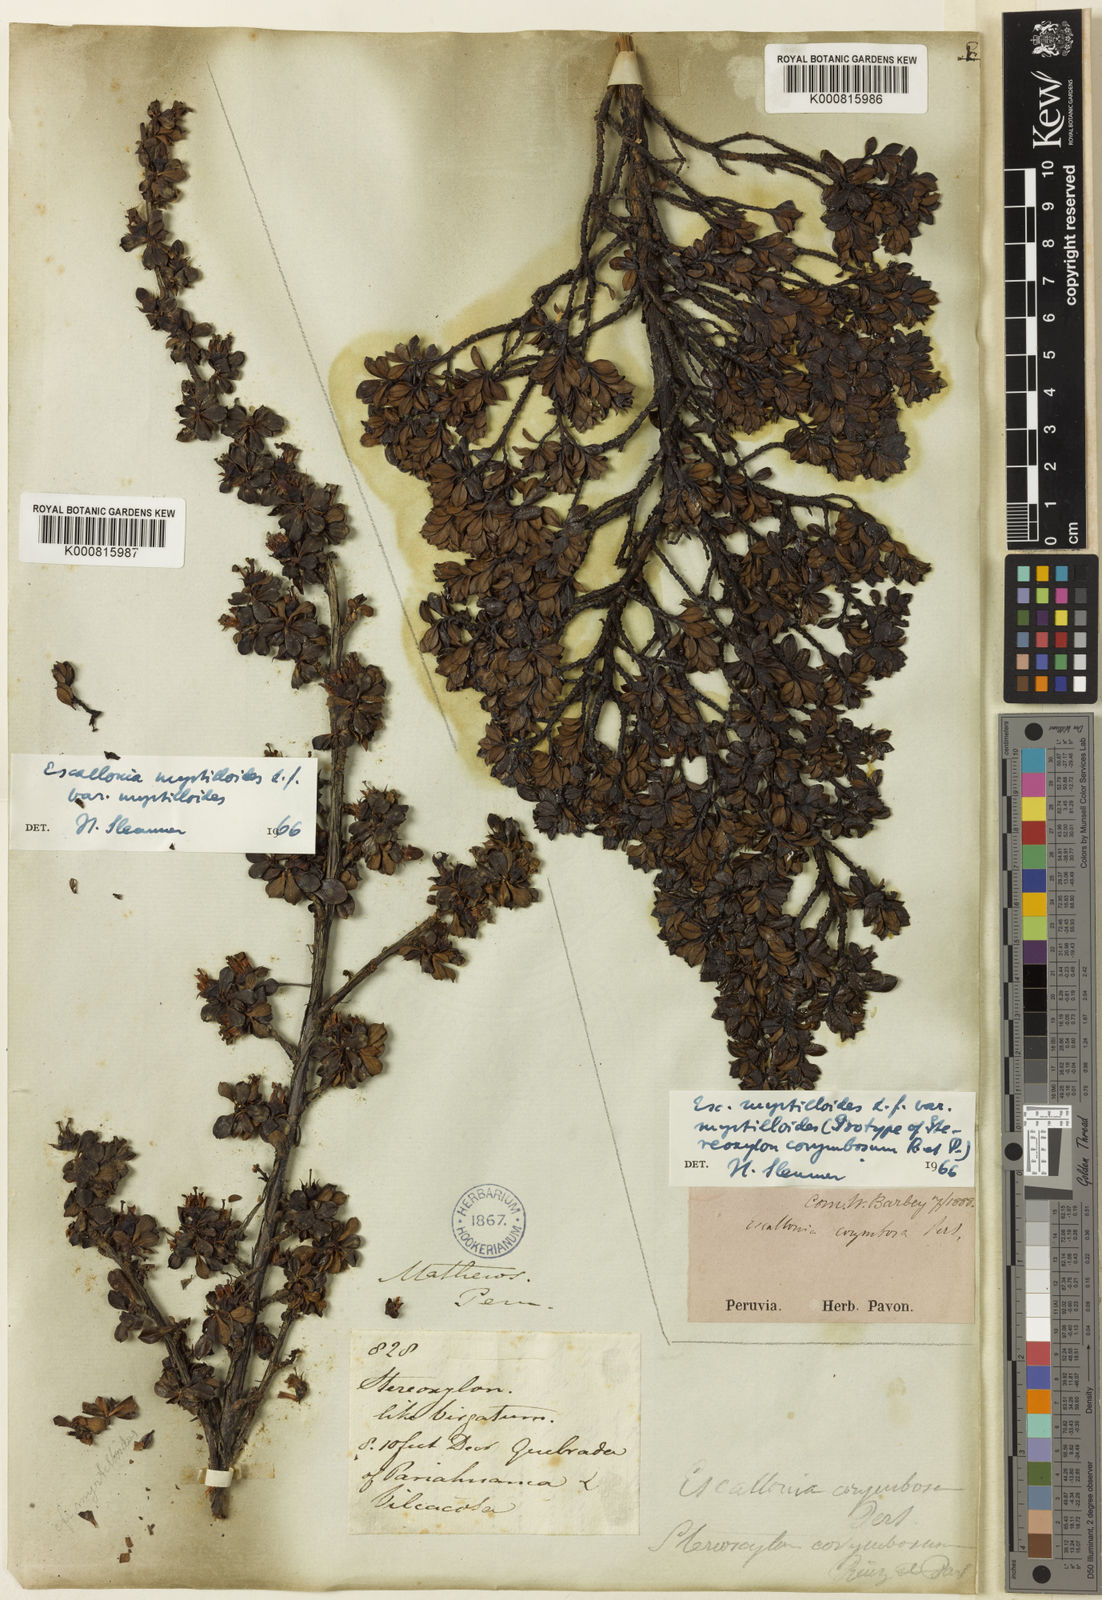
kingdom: Plantae
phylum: Tracheophyta
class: Magnoliopsida
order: Escalloniales
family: Escalloniaceae
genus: Escallonia
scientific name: Escallonia myrtilloides
